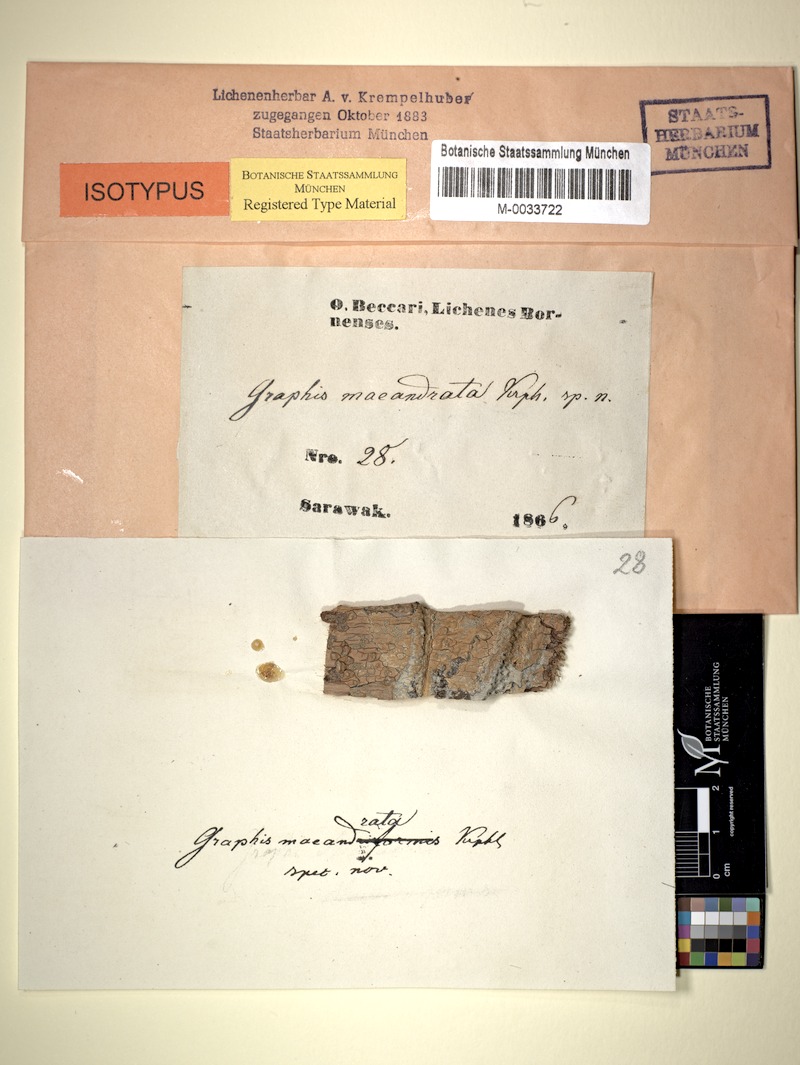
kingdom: Fungi
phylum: Ascomycota
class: Lecanoromycetes
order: Ostropales
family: Graphidaceae
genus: Phaeographis
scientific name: Phaeographis
